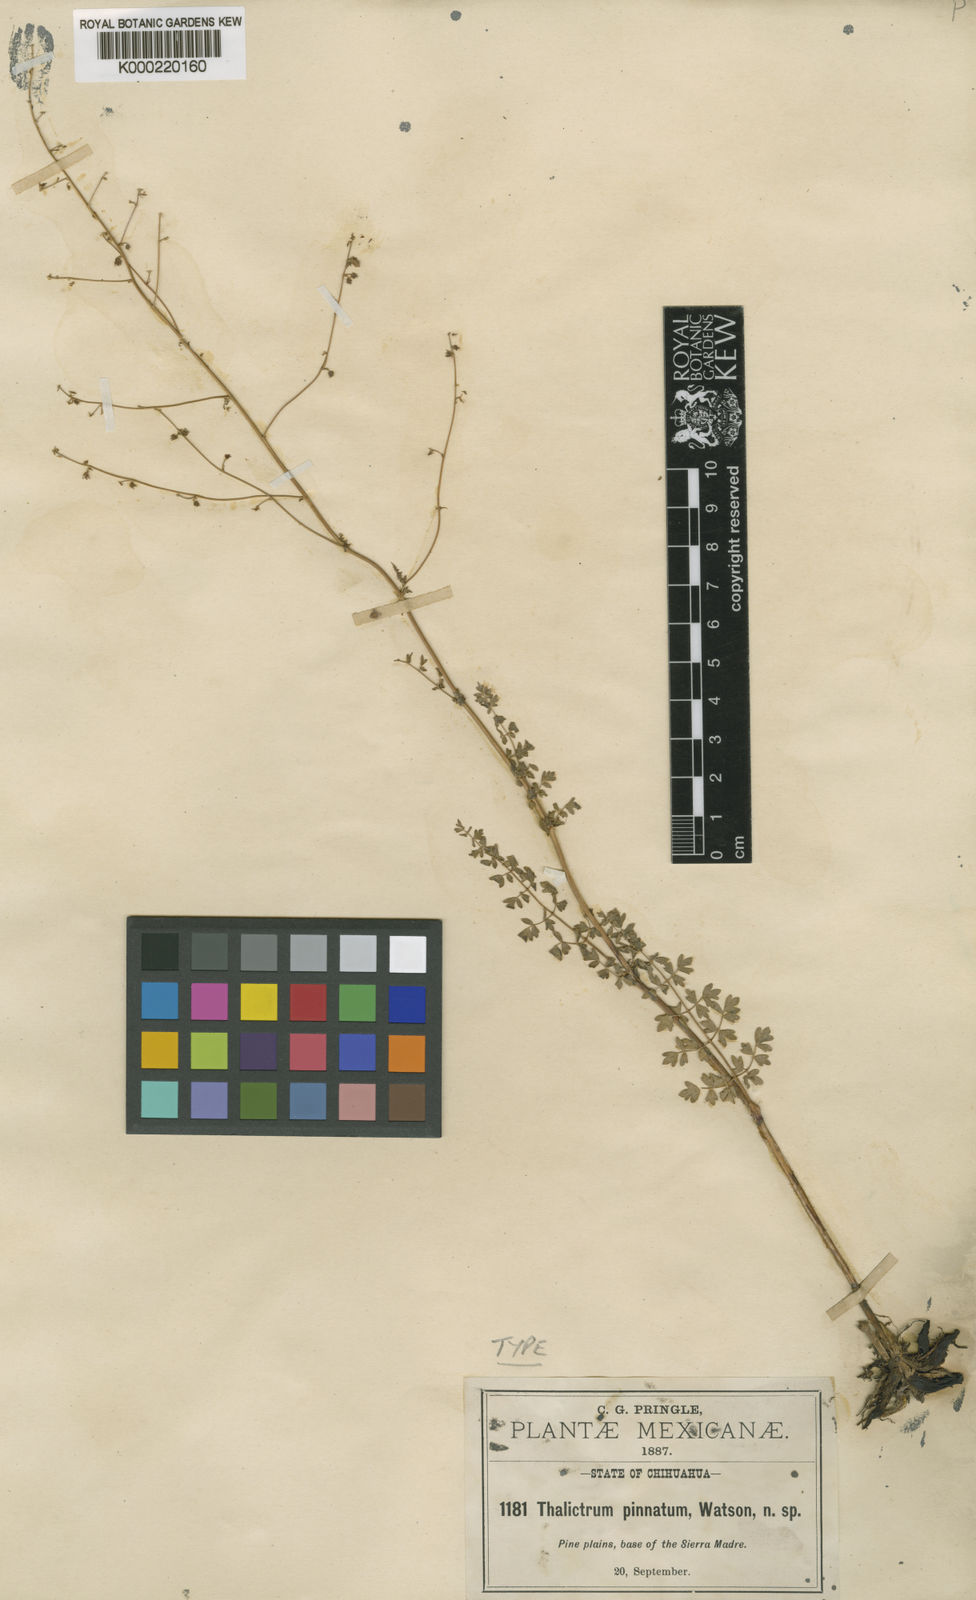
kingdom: Plantae
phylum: Tracheophyta
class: Magnoliopsida
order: Ranunculales
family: Ranunculaceae
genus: Thalictrum
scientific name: Thalictrum pinnatum
